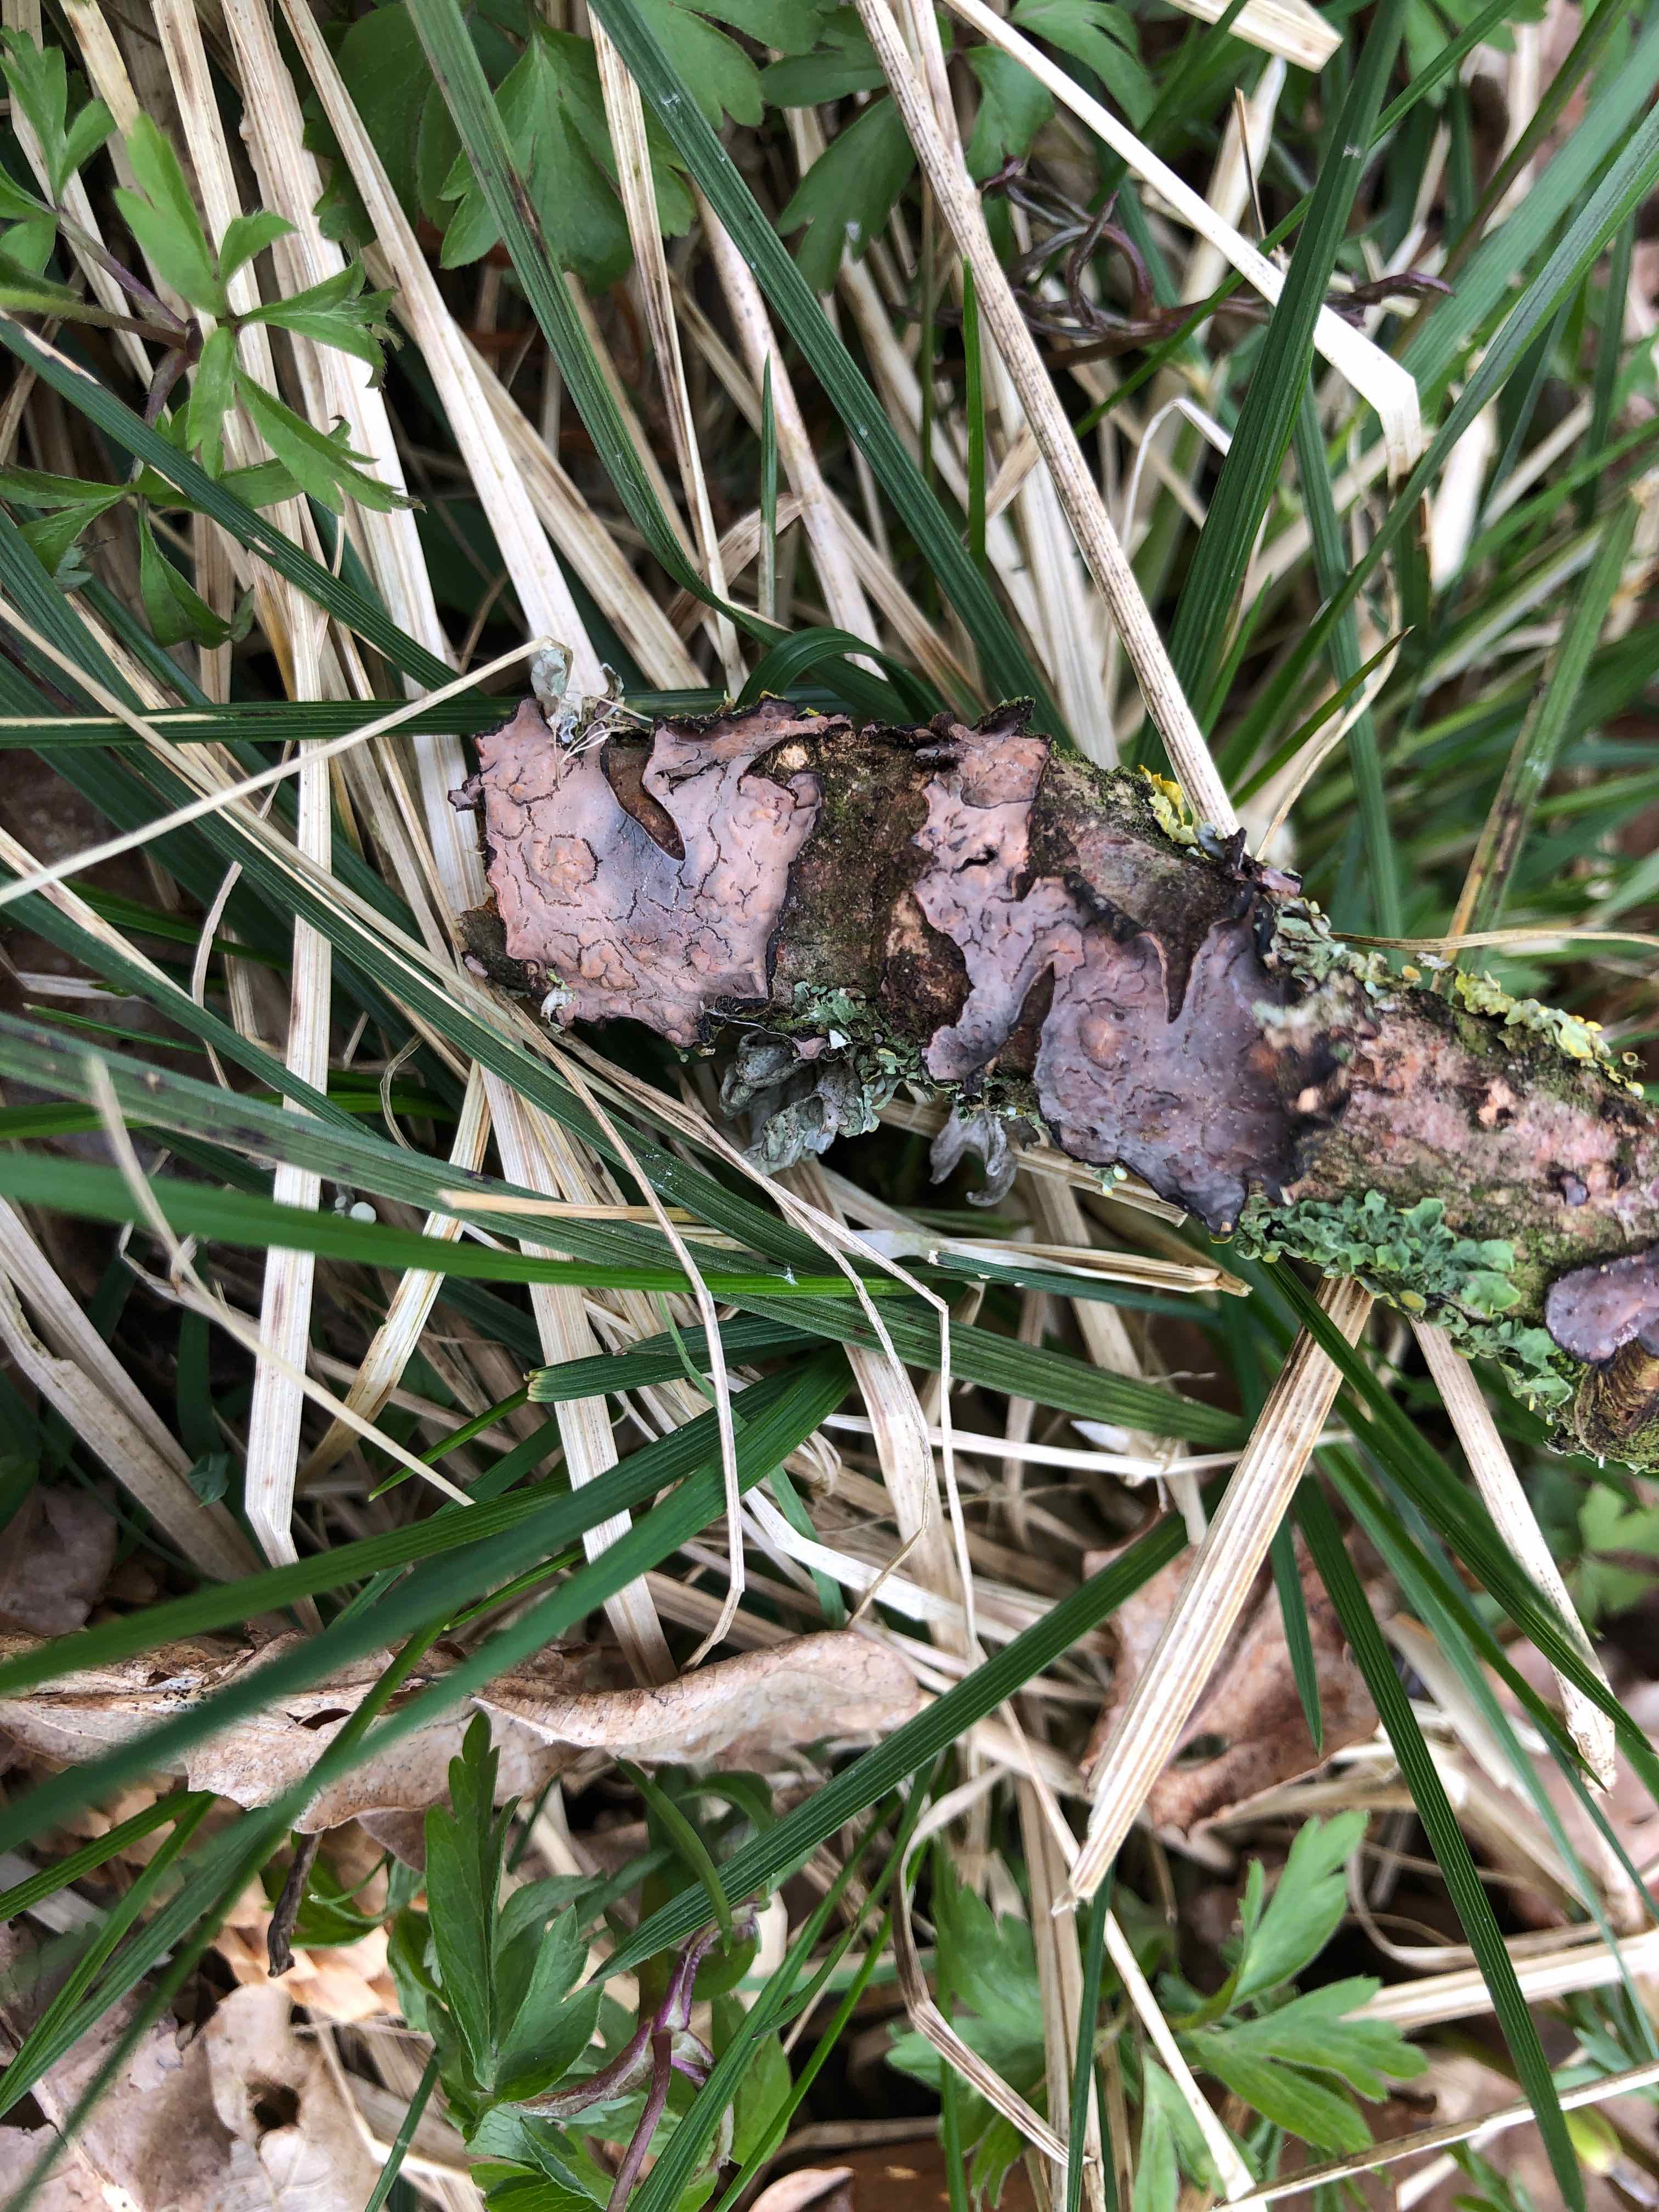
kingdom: Fungi
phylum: Basidiomycota
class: Agaricomycetes
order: Russulales
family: Peniophoraceae
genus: Peniophora
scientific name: Peniophora quercina
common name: ege-voksskind
